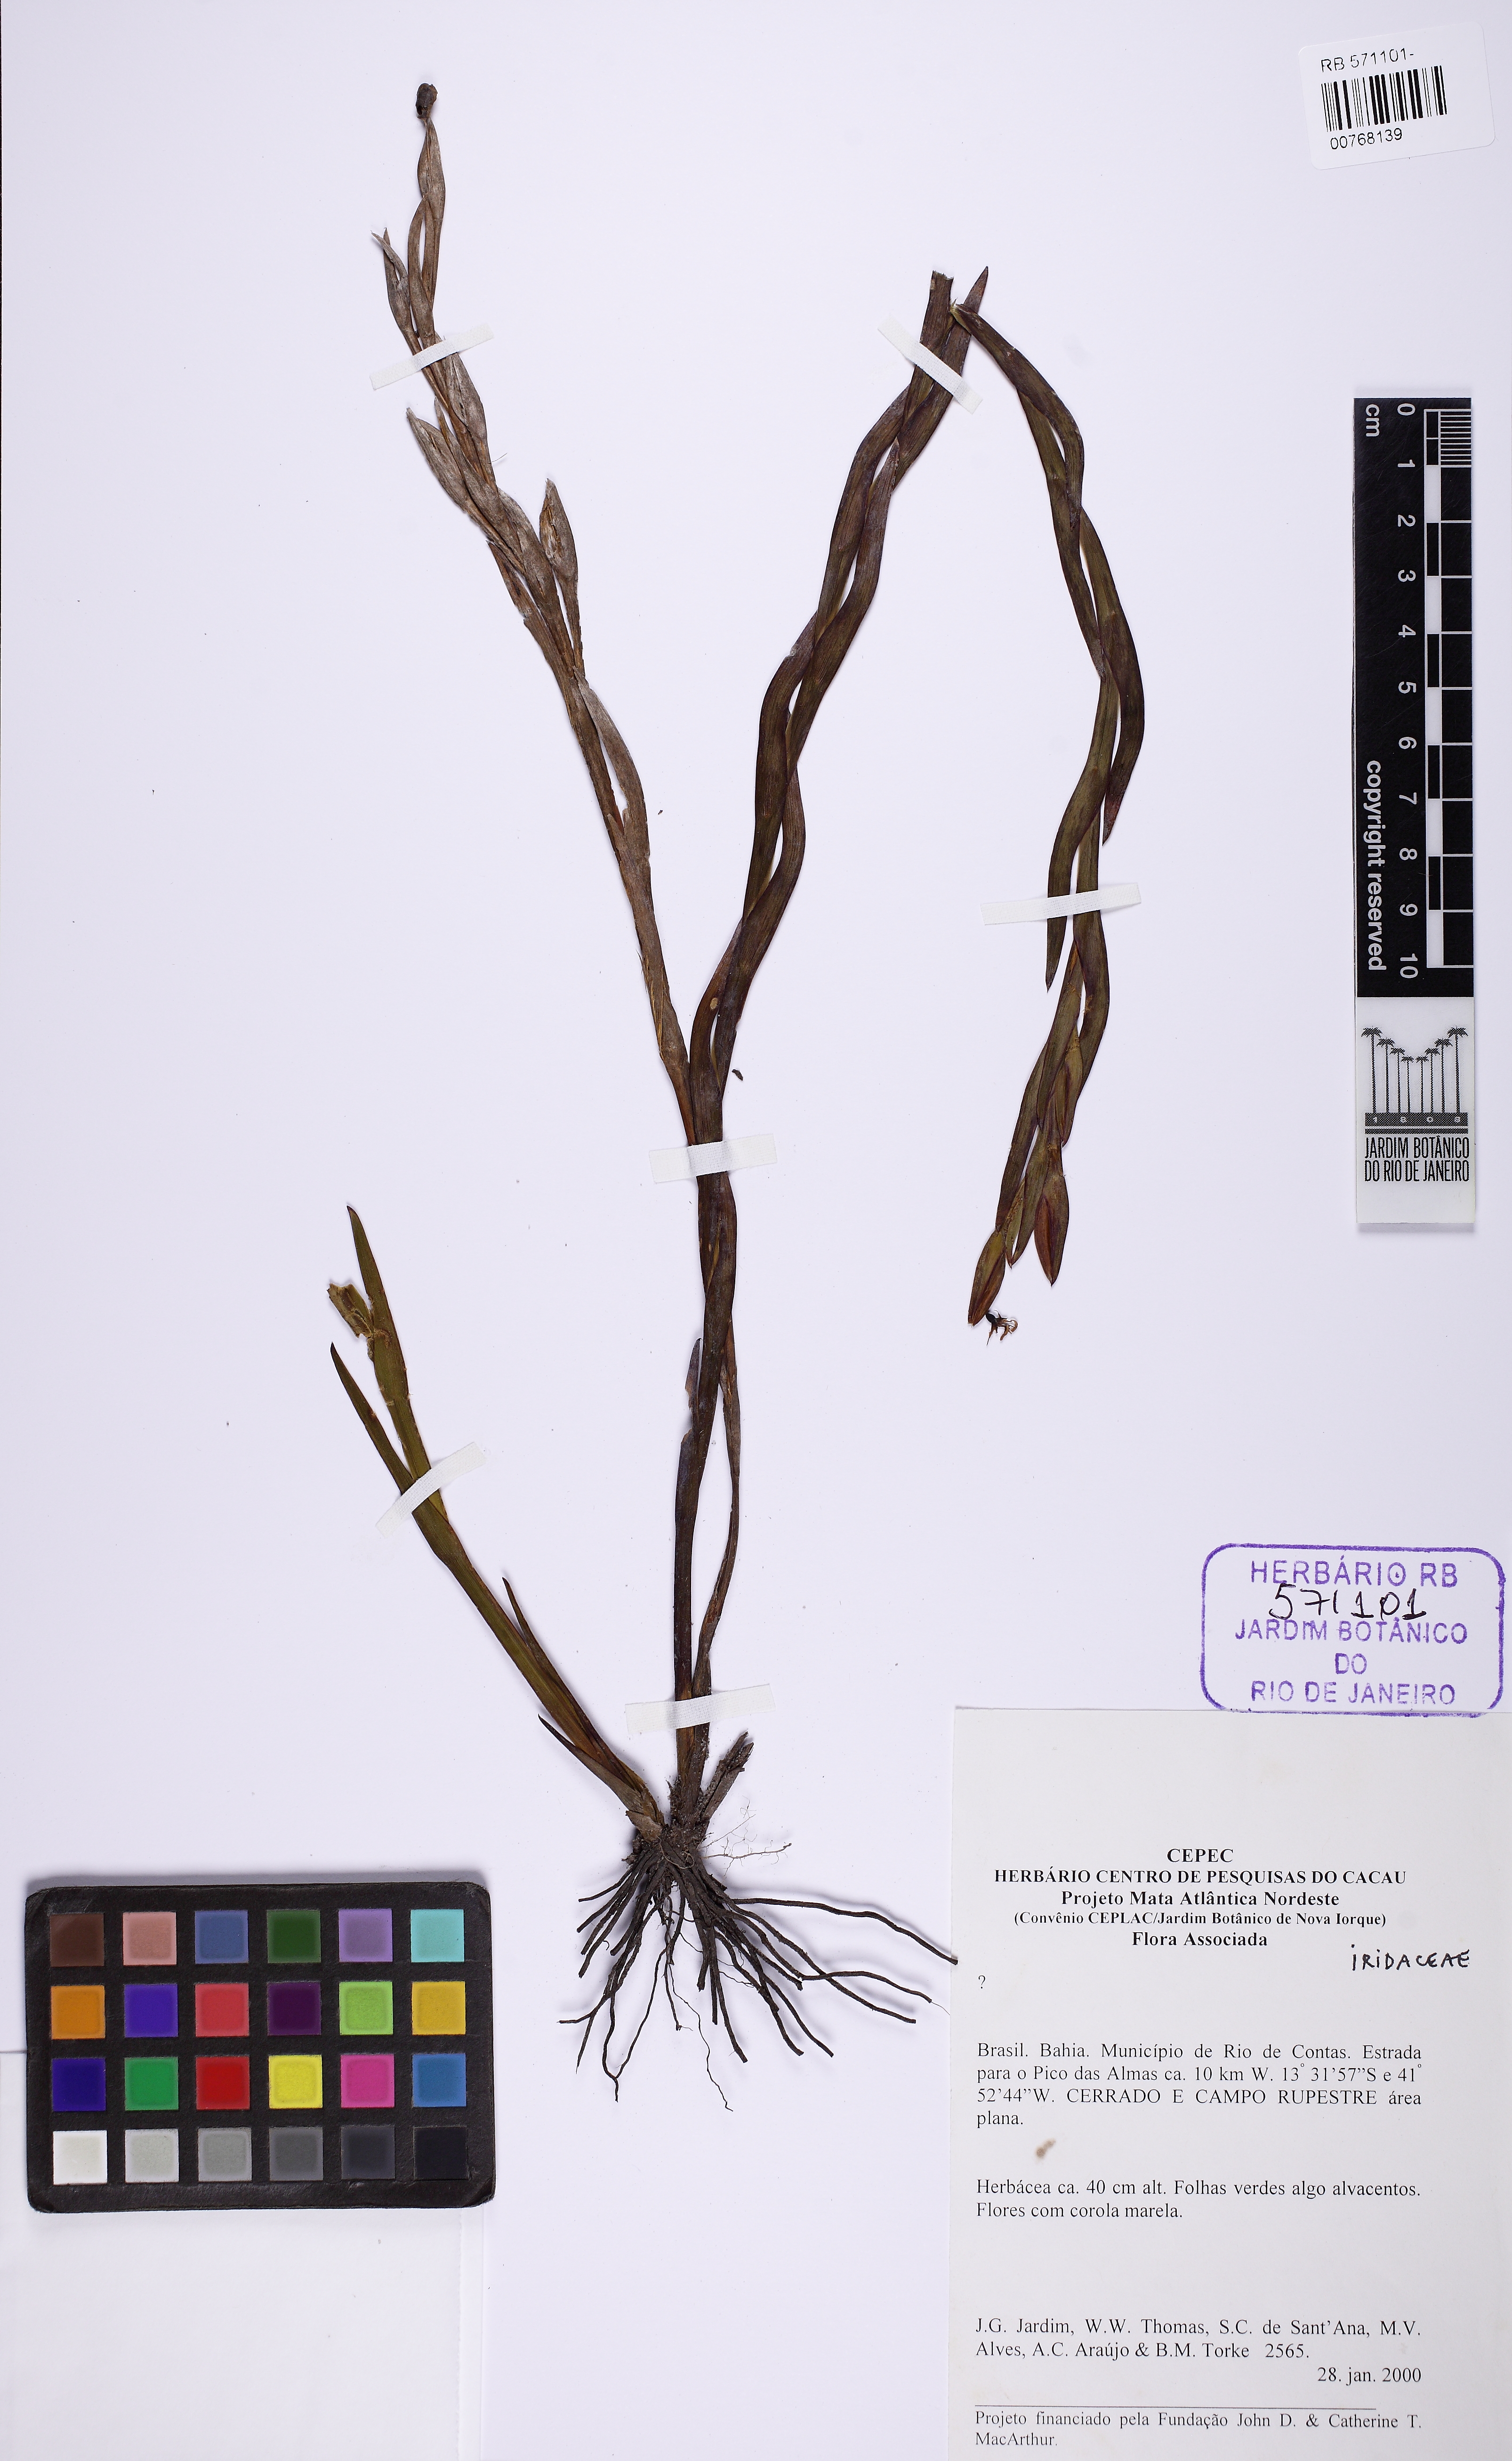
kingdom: Plantae
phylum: Tracheophyta
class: Liliopsida
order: Asparagales
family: Iridaceae
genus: Sisyrinchium
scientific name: Sisyrinchium vaginatum
